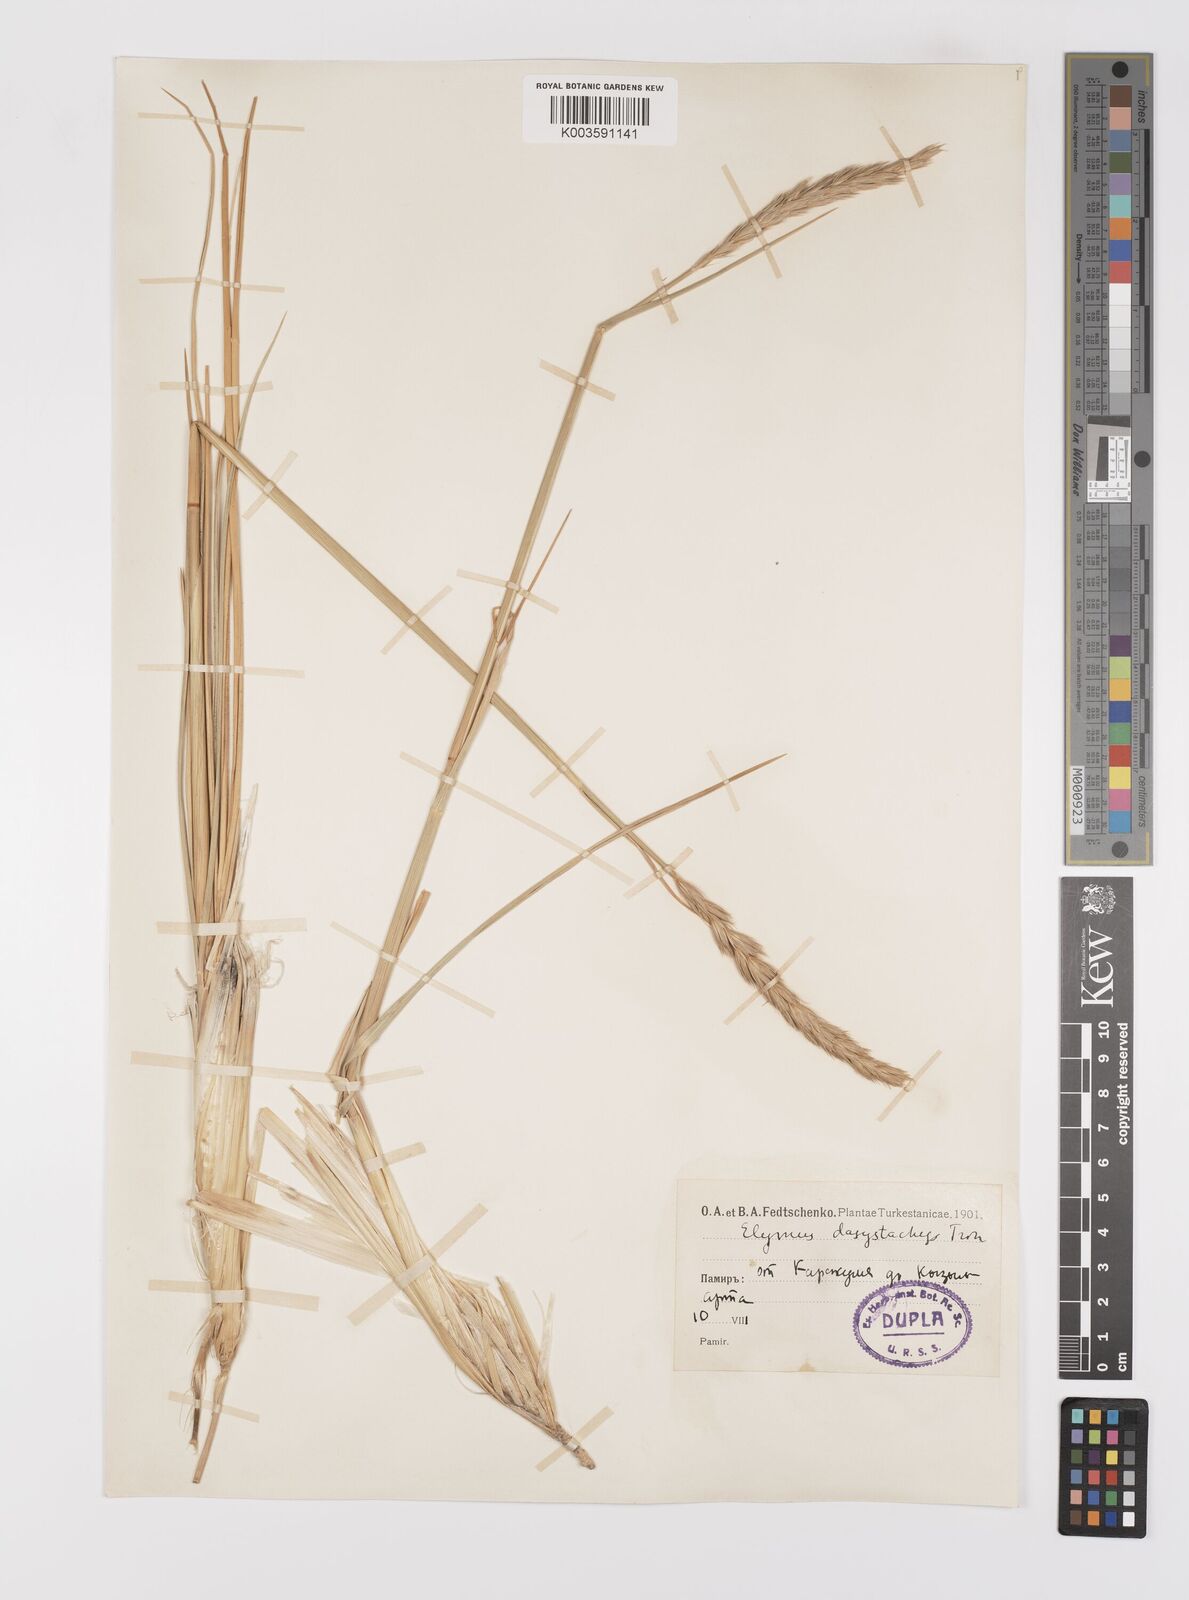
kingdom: Plantae
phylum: Tracheophyta
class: Liliopsida
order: Poales
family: Poaceae
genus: Leymus
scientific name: Leymus secalinus
